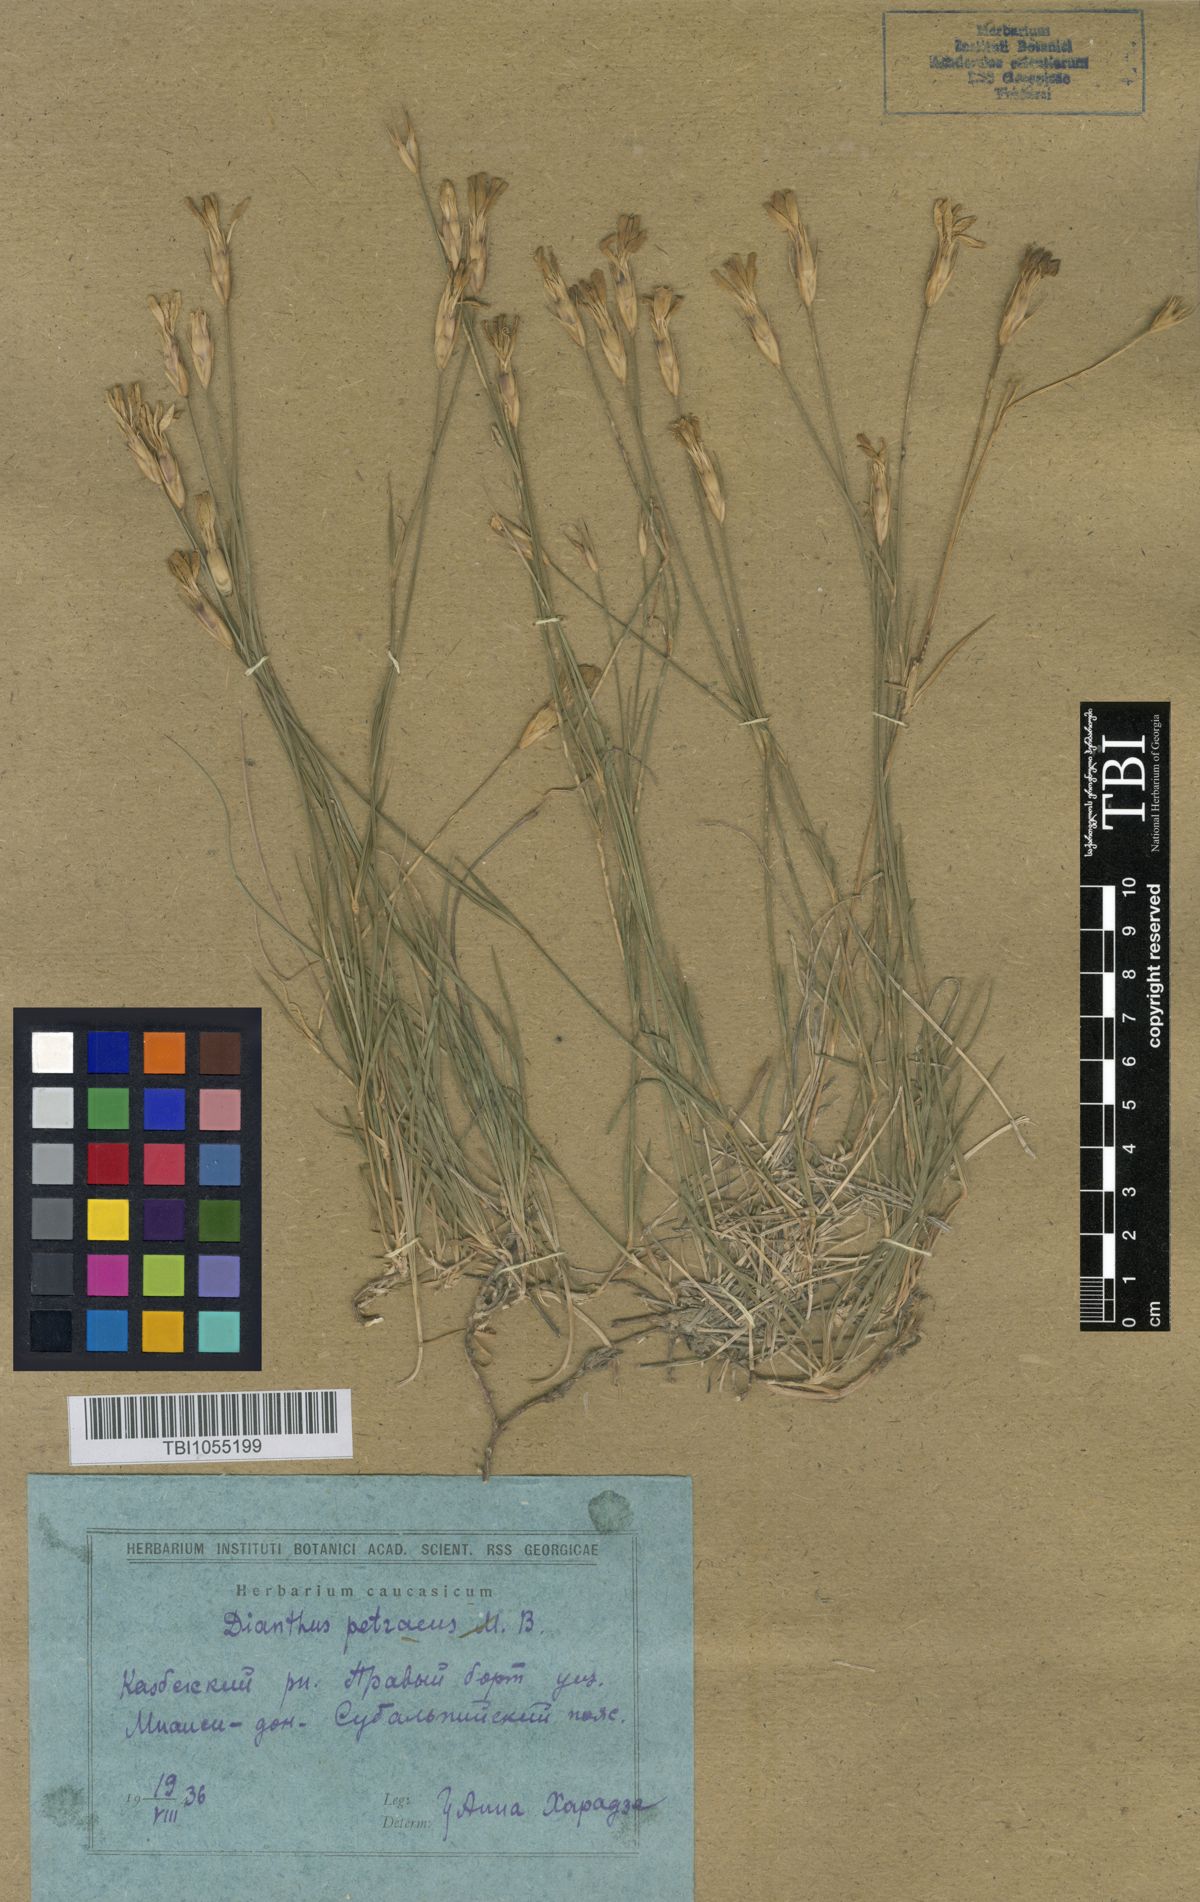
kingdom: Plantae
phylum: Tracheophyta
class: Magnoliopsida
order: Caryophyllales
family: Caryophyllaceae
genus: Dianthus
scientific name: Dianthus cretaceus
